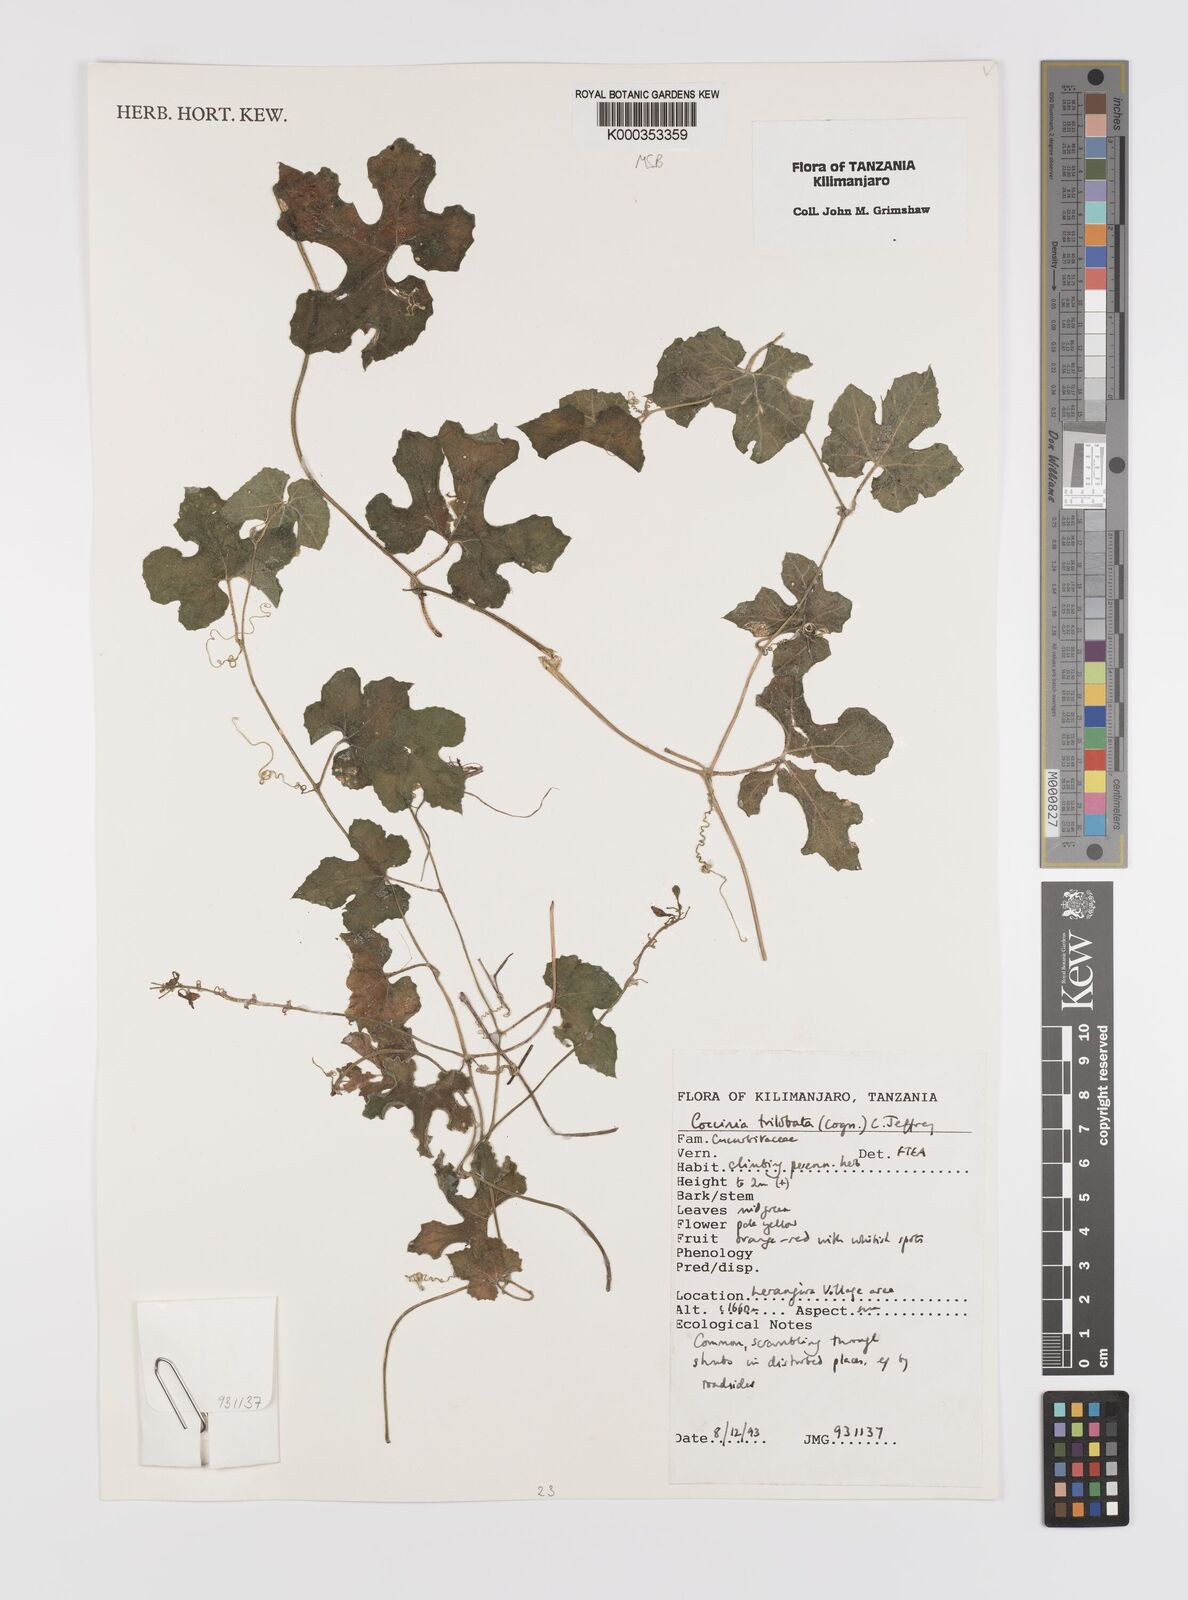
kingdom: Plantae
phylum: Tracheophyta
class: Magnoliopsida
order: Cucurbitales
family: Cucurbitaceae
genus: Coccinia
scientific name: Coccinia trilobata
